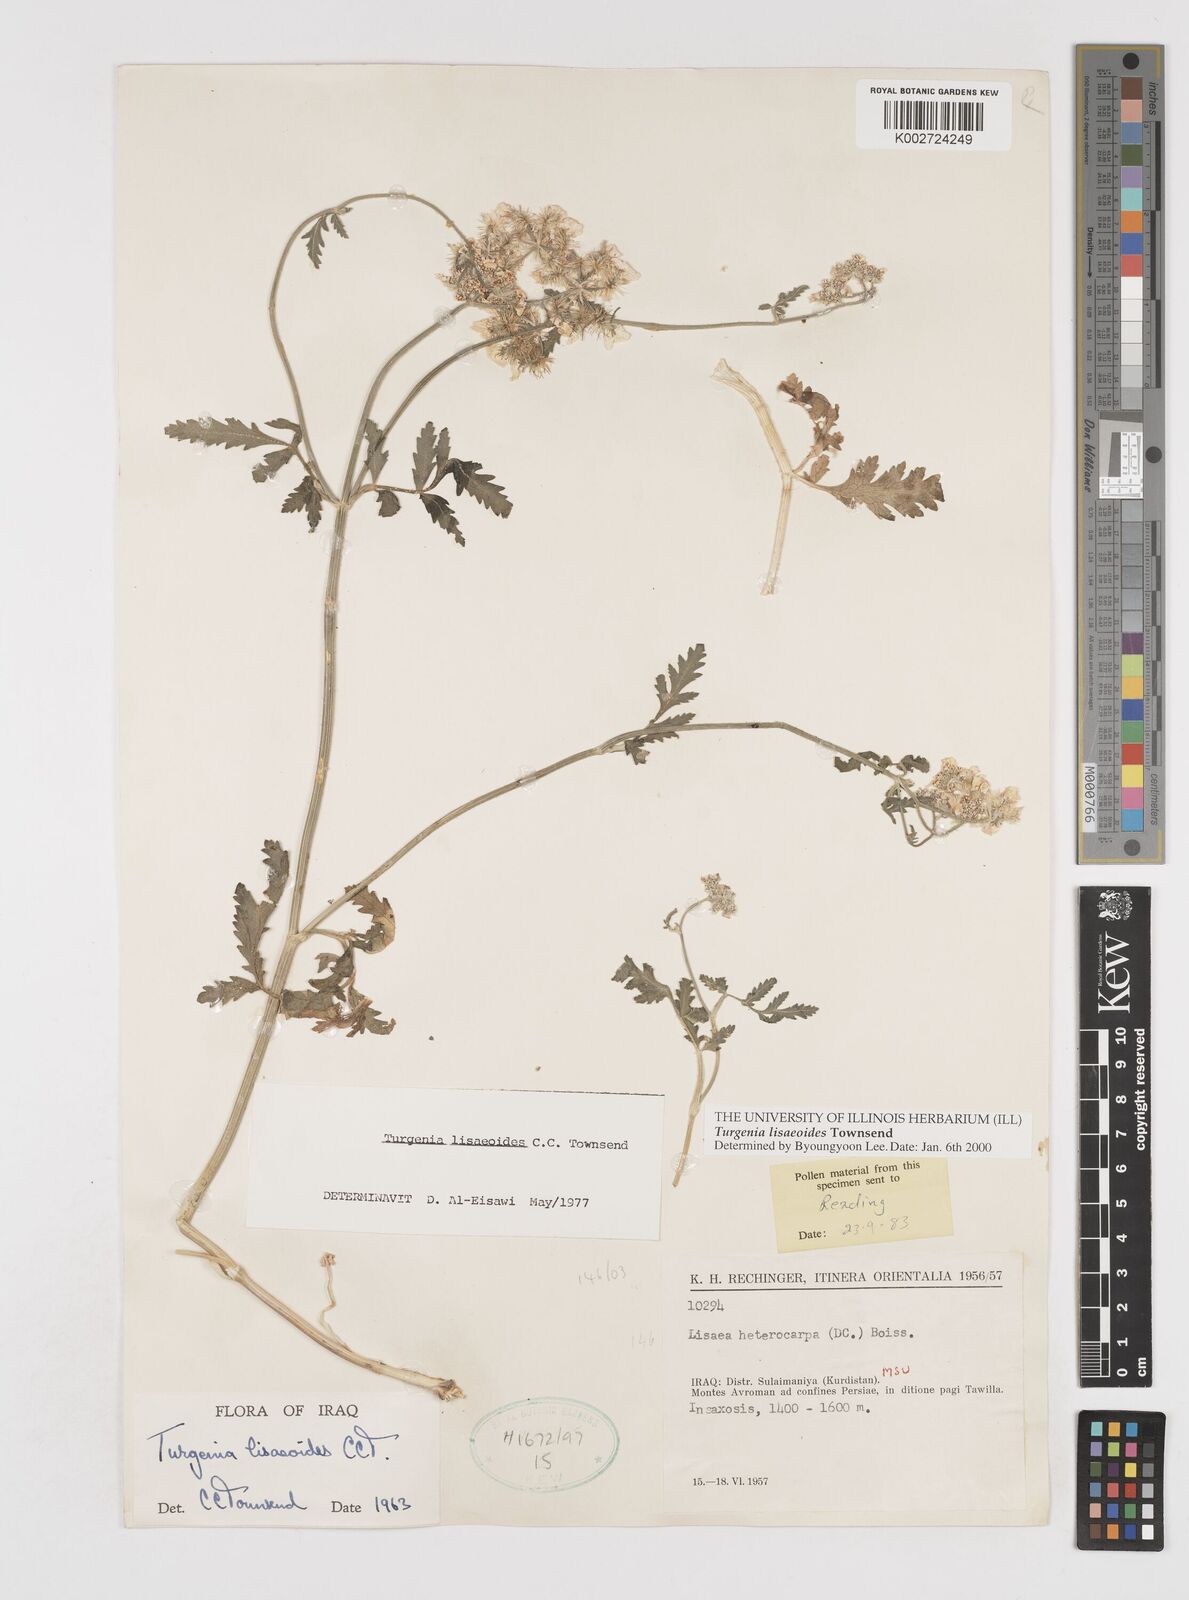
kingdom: Plantae
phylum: Tracheophyta
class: Magnoliopsida
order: Apiales
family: Apiaceae
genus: Turgenia
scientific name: Turgenia lisaeoides
